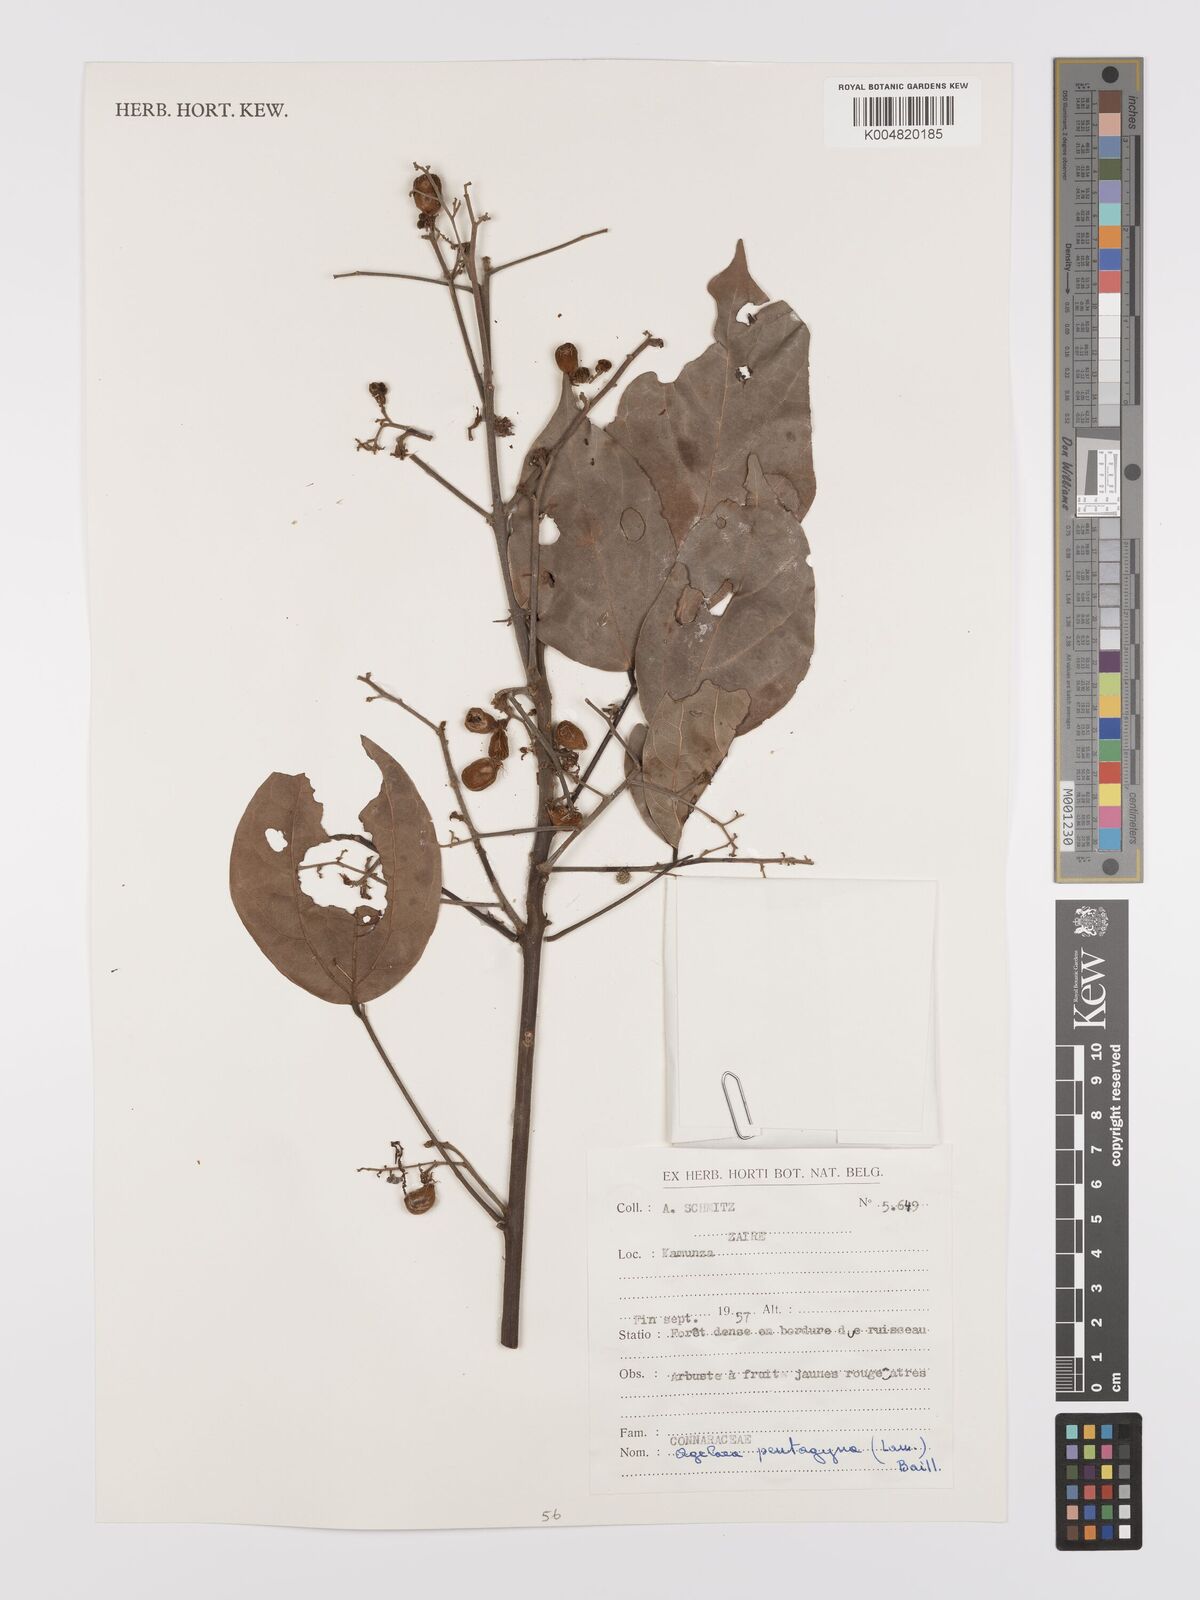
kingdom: Plantae
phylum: Tracheophyta
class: Magnoliopsida
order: Oxalidales
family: Connaraceae
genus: Agelaea
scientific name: Agelaea pentagyna
